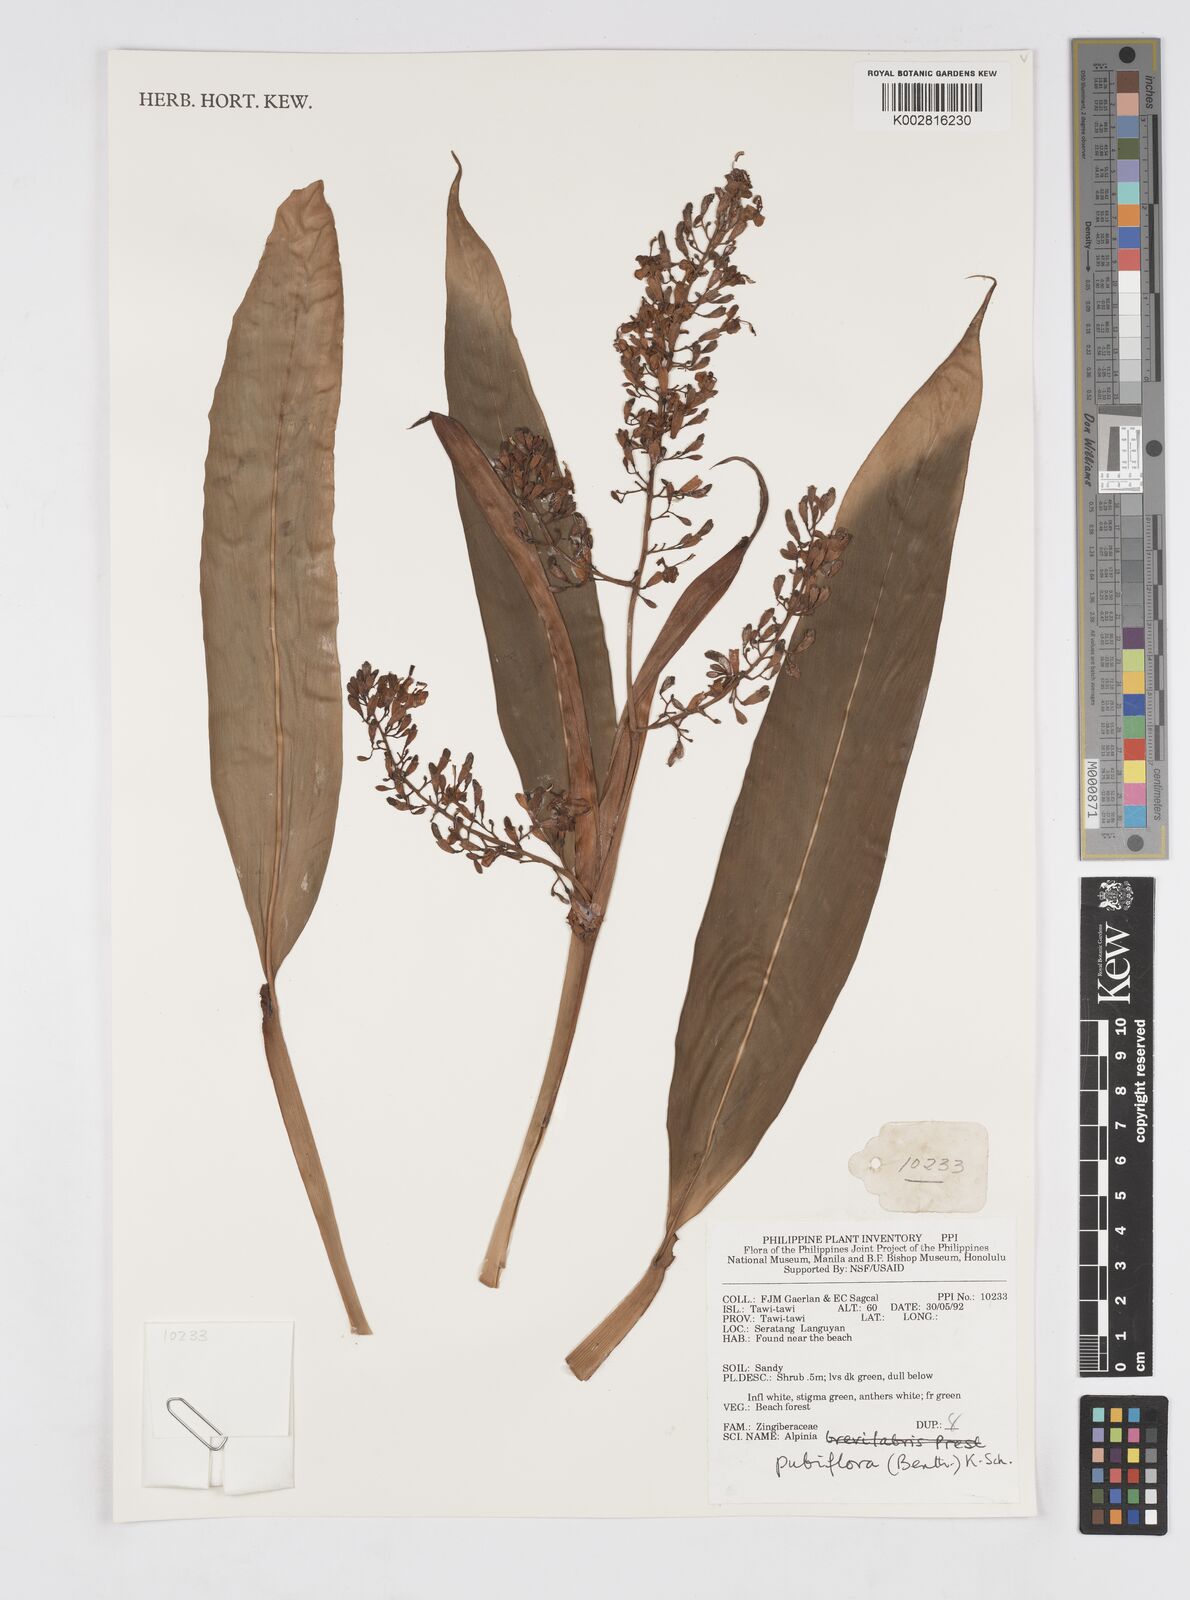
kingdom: Plantae
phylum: Tracheophyta
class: Liliopsida
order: Zingiberales
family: Zingiberaceae
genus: Alpinia
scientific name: Alpinia pubiflora
